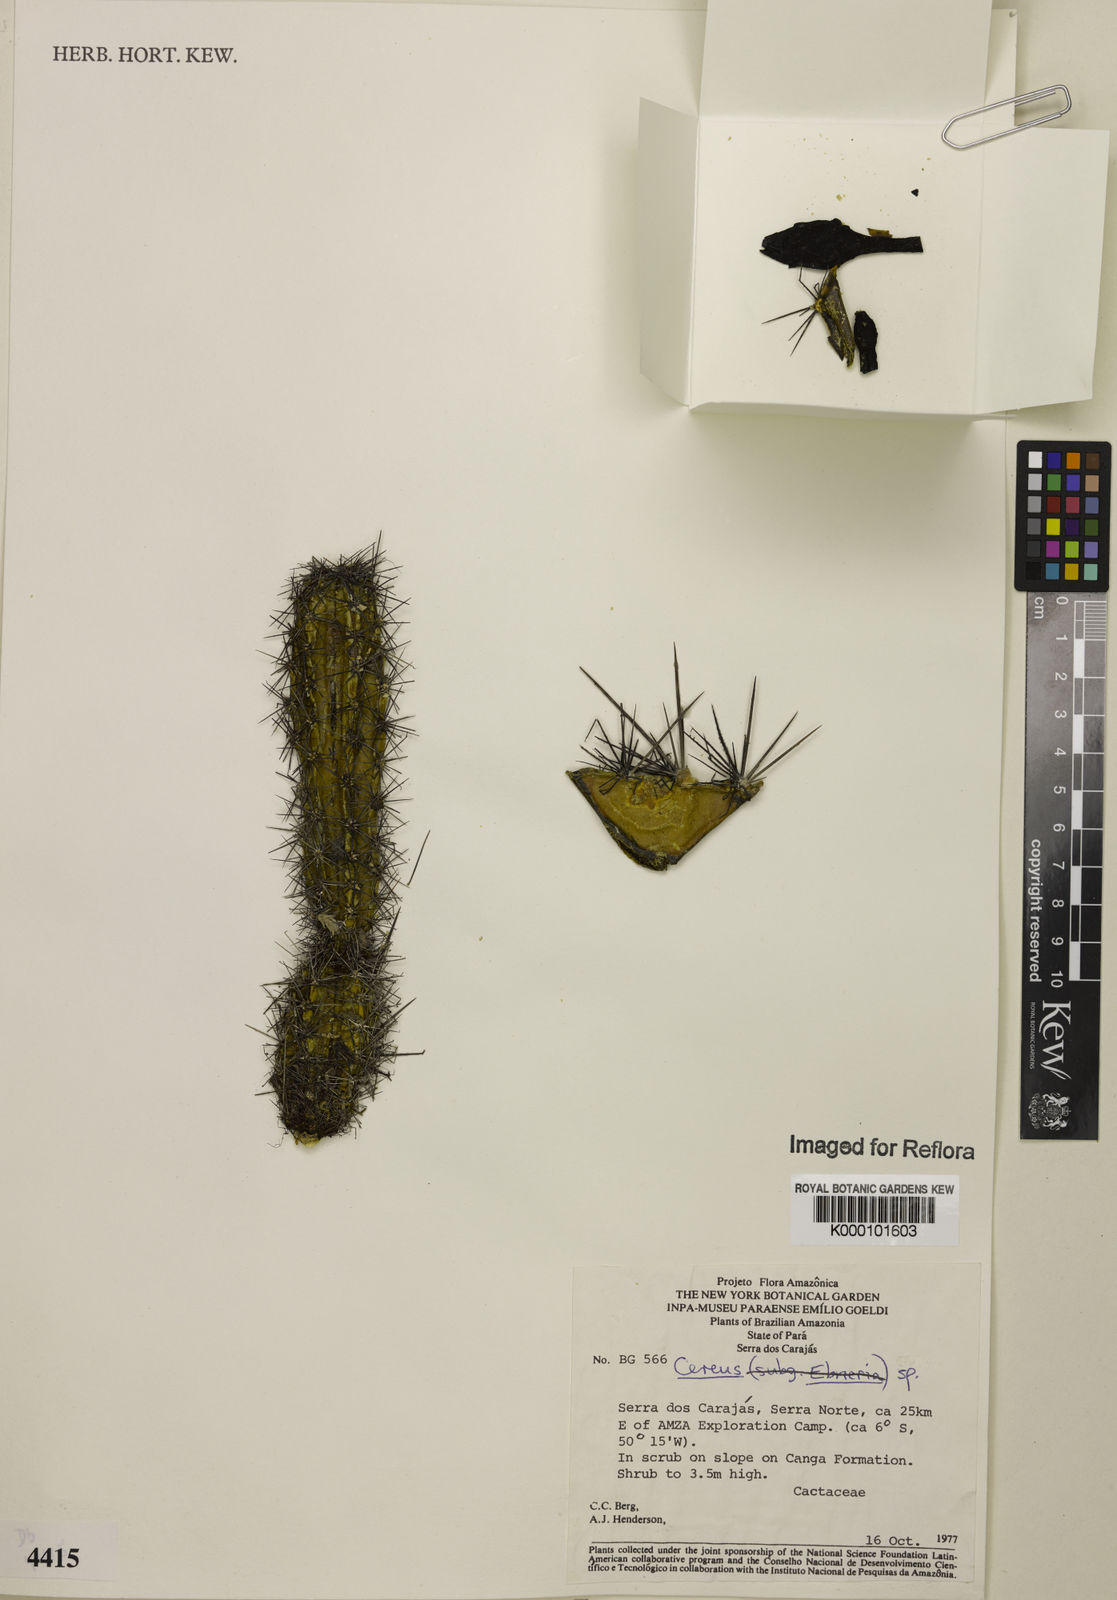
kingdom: Plantae
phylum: Tracheophyta
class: Magnoliopsida
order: Caryophyllales
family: Cactaceae
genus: Cereus
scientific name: Cereus
